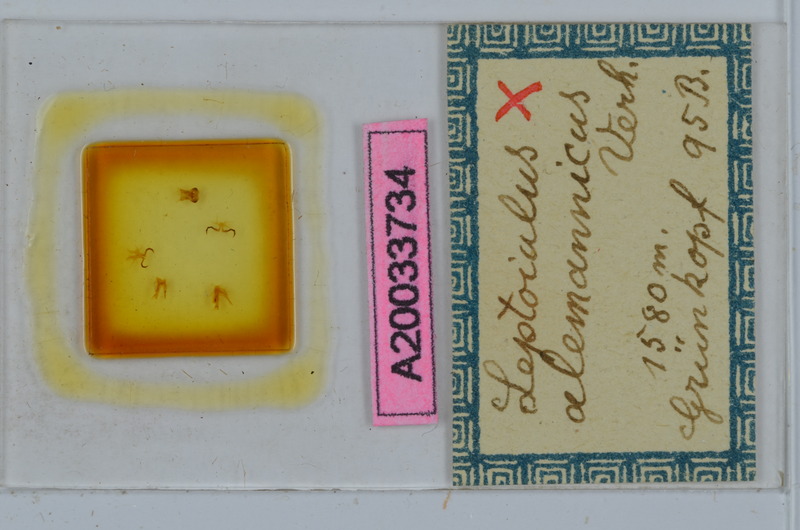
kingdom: Animalia
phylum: Arthropoda
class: Diplopoda
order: Julida
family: Julidae
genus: Leptoiulus
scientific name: Leptoiulus alemannicus
